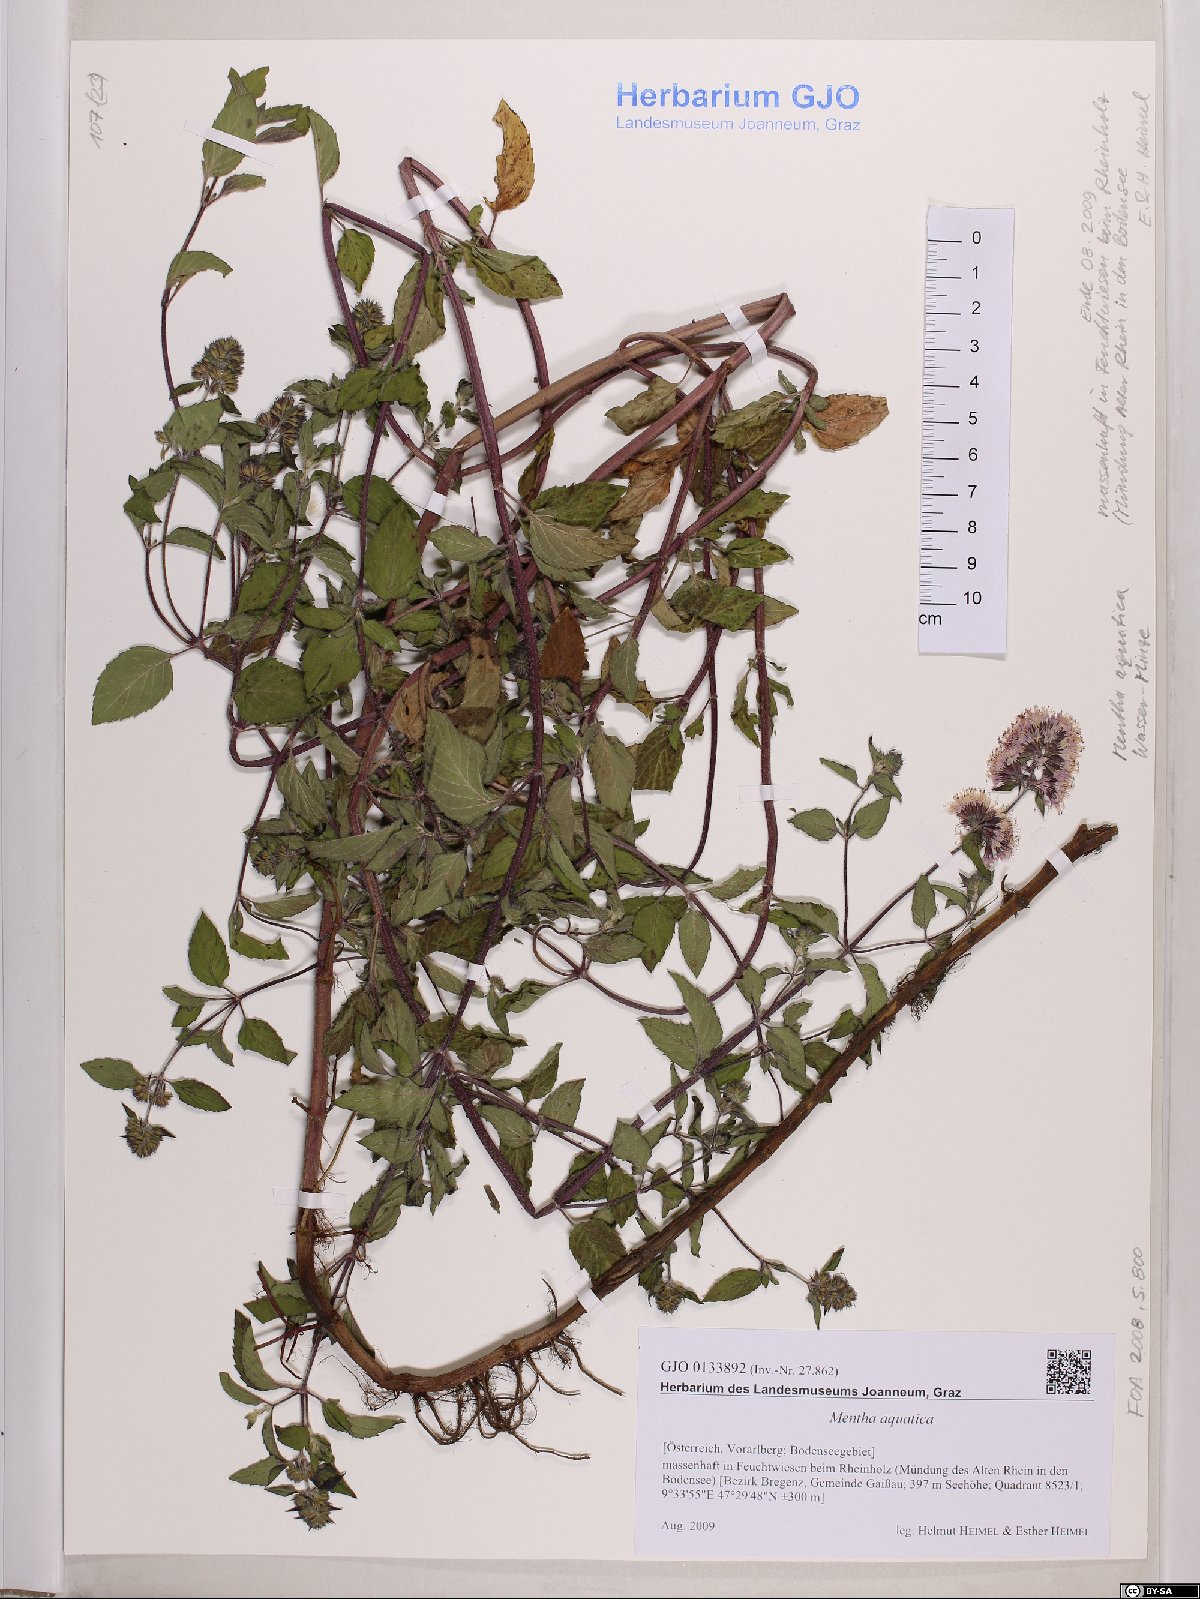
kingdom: Plantae
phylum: Tracheophyta
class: Magnoliopsida
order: Lamiales
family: Lamiaceae
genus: Mentha
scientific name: Mentha aquatica
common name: Water mint
